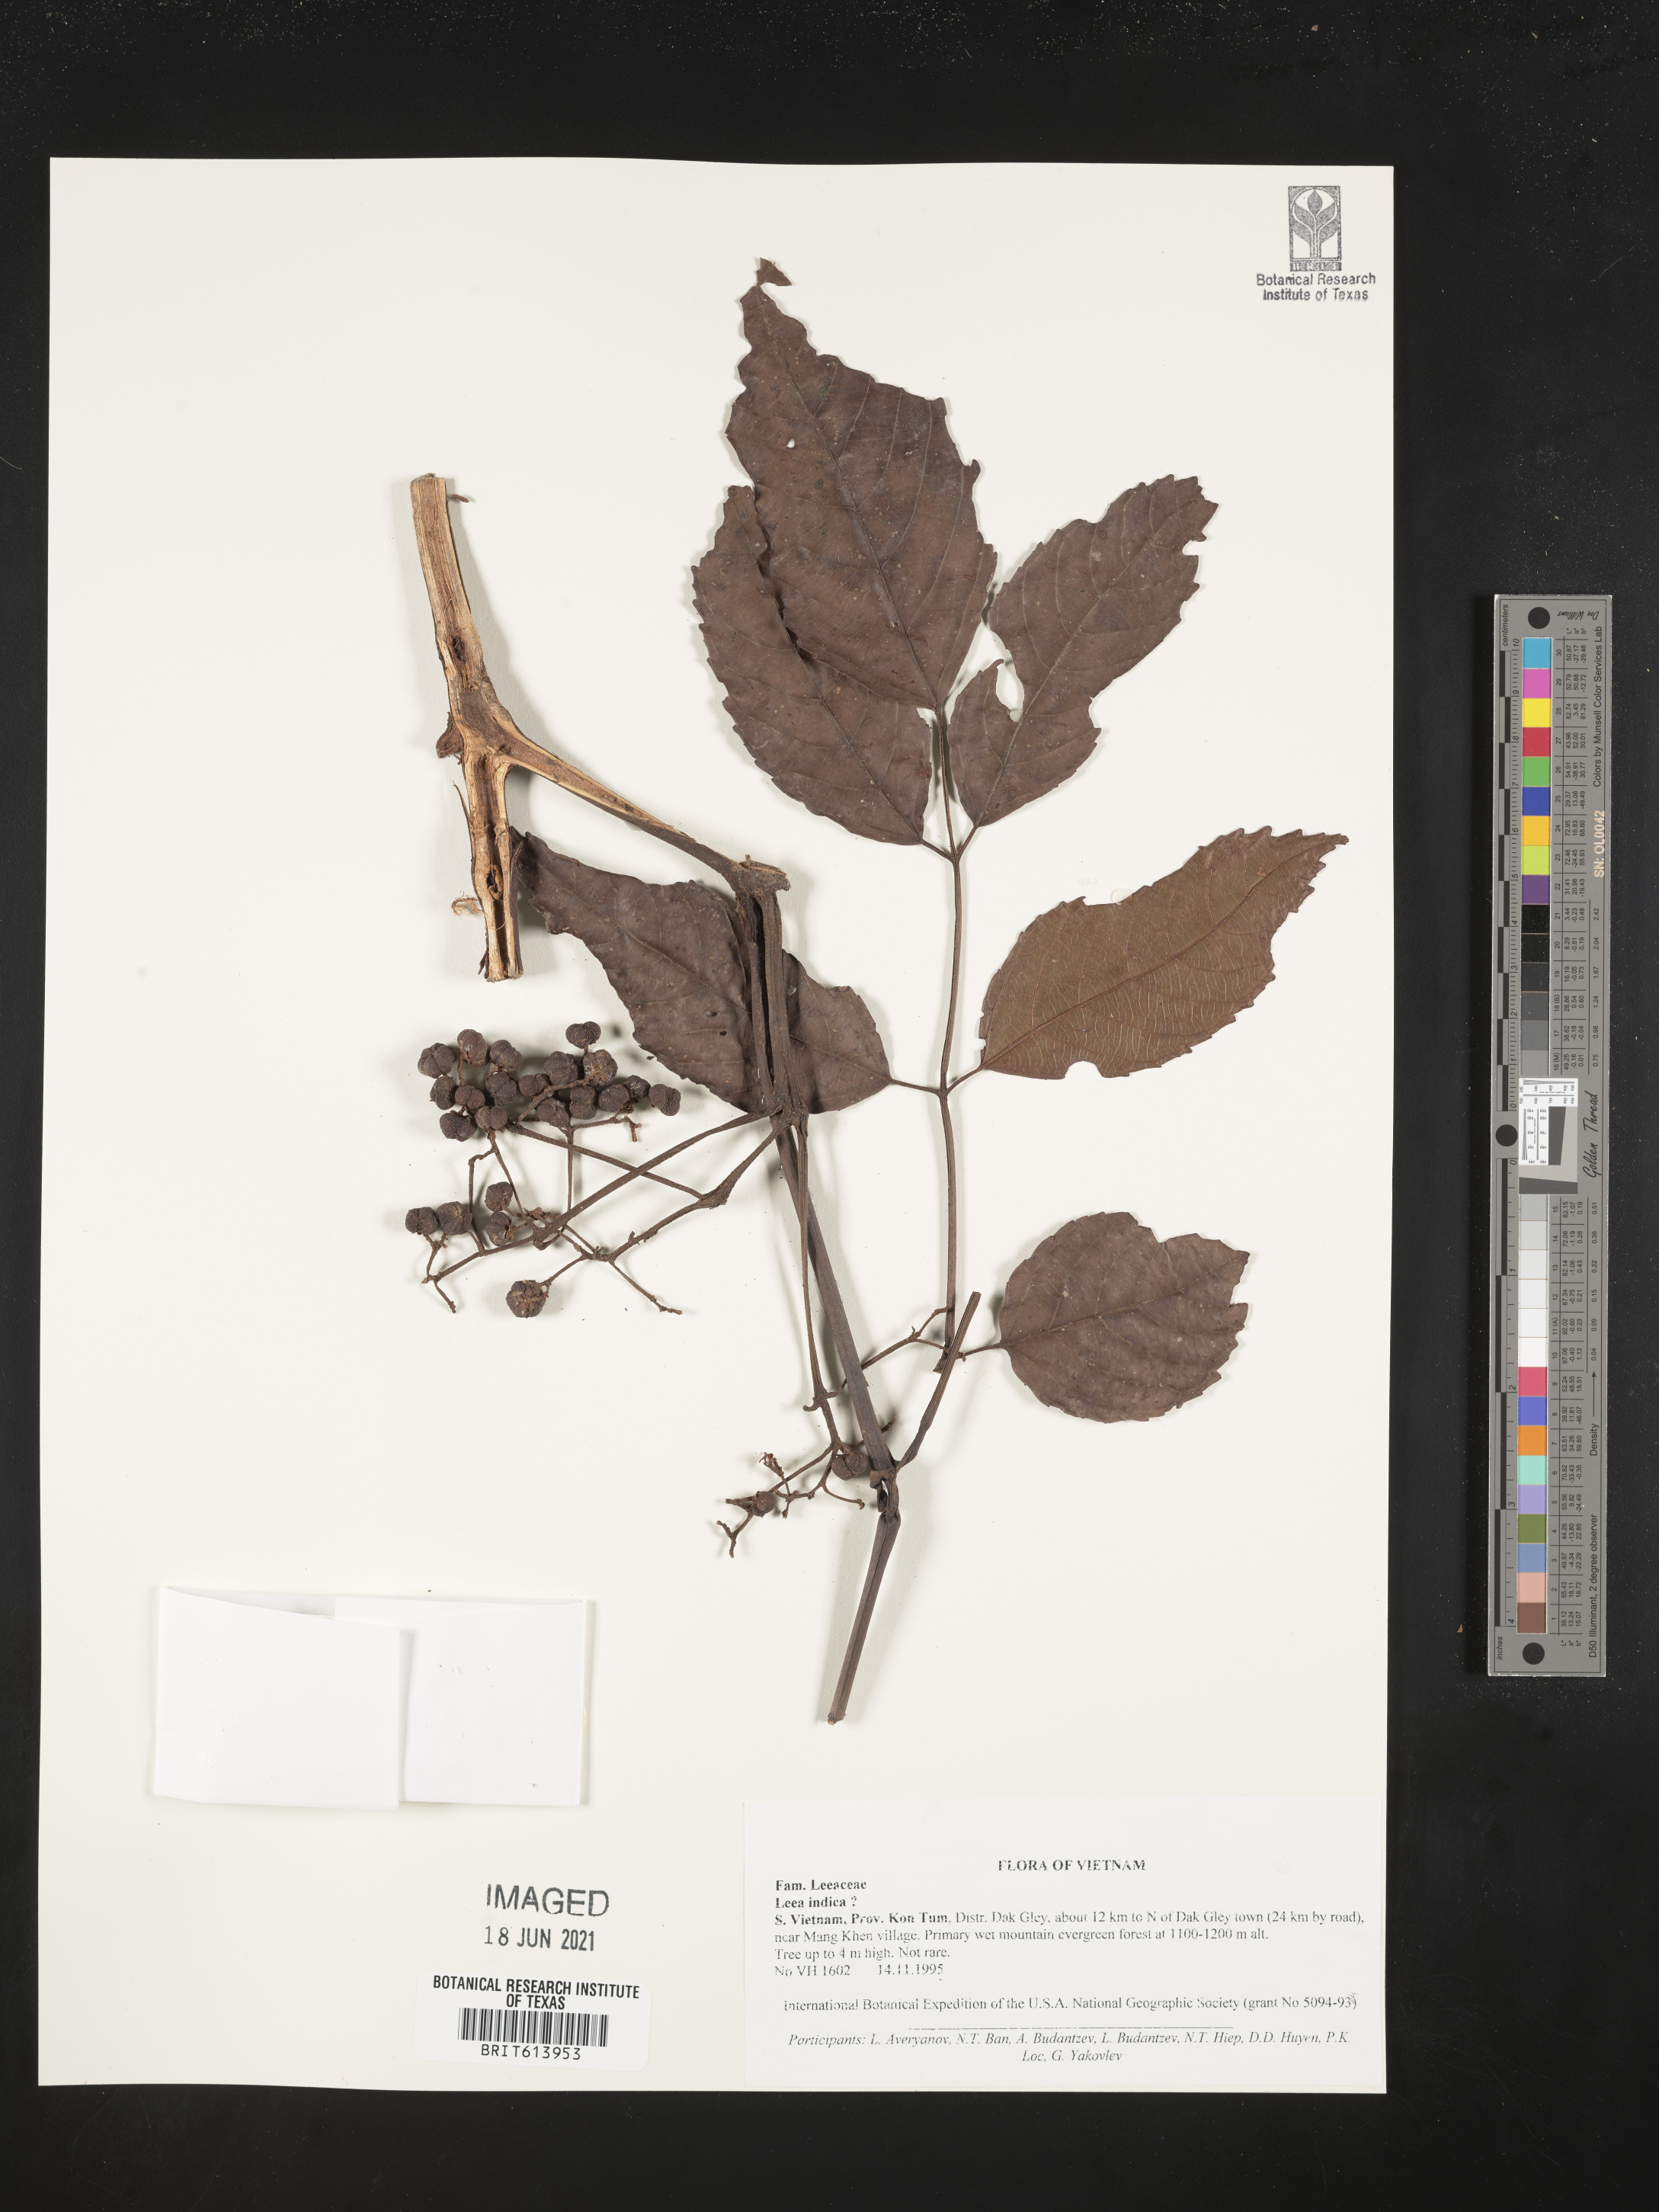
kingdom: Plantae
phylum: Tracheophyta
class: Magnoliopsida
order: Vitales
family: Vitaceae
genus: Leea
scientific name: Leea indica
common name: Bandicoot-berry
